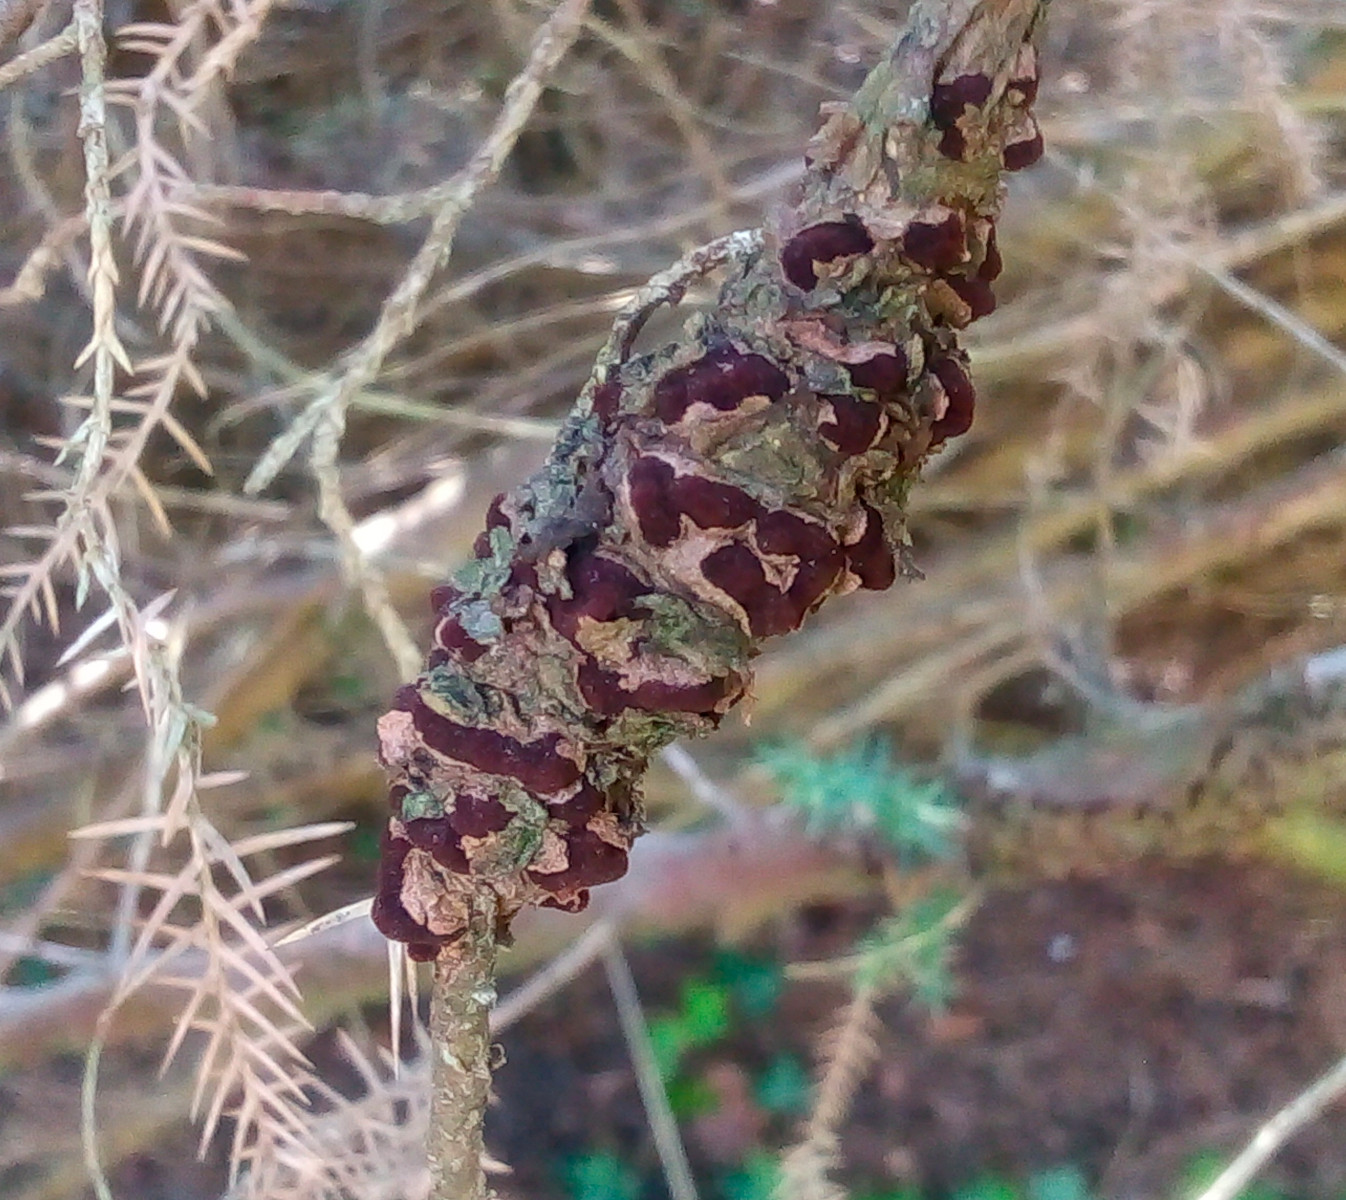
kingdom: Fungi
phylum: Basidiomycota
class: Pucciniomycetes
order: Pucciniales
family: Gymnosporangiaceae
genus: Gymnosporangium
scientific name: Gymnosporangium sabinae
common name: pæregitter-bævrerust
